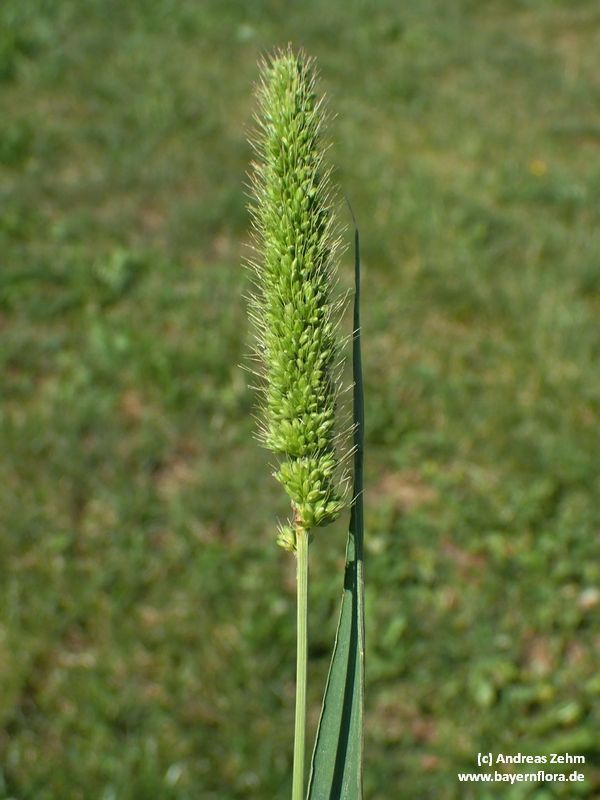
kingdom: Plantae
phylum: Tracheophyta
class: Liliopsida
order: Poales
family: Poaceae
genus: Setaria
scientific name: Setaria viridis
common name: Green bristlegrass
